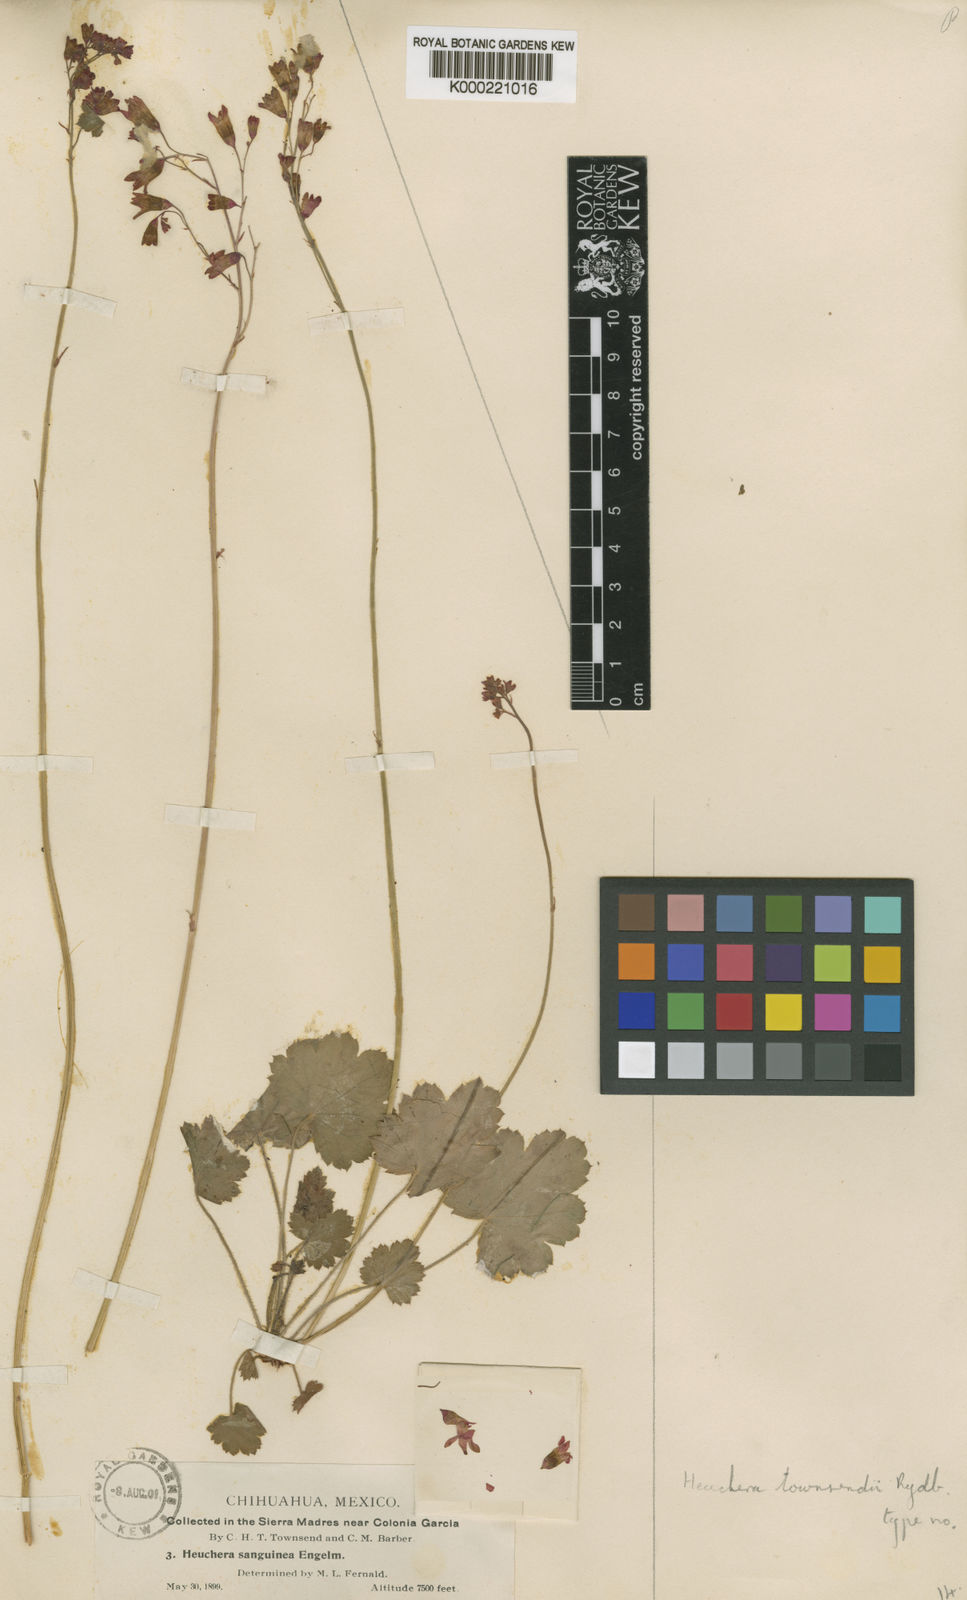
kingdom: Plantae
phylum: Tracheophyta
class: Magnoliopsida
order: Saxifragales
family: Saxifragaceae
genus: Heuchera
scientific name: Heuchera sanguinea
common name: Coralbells
